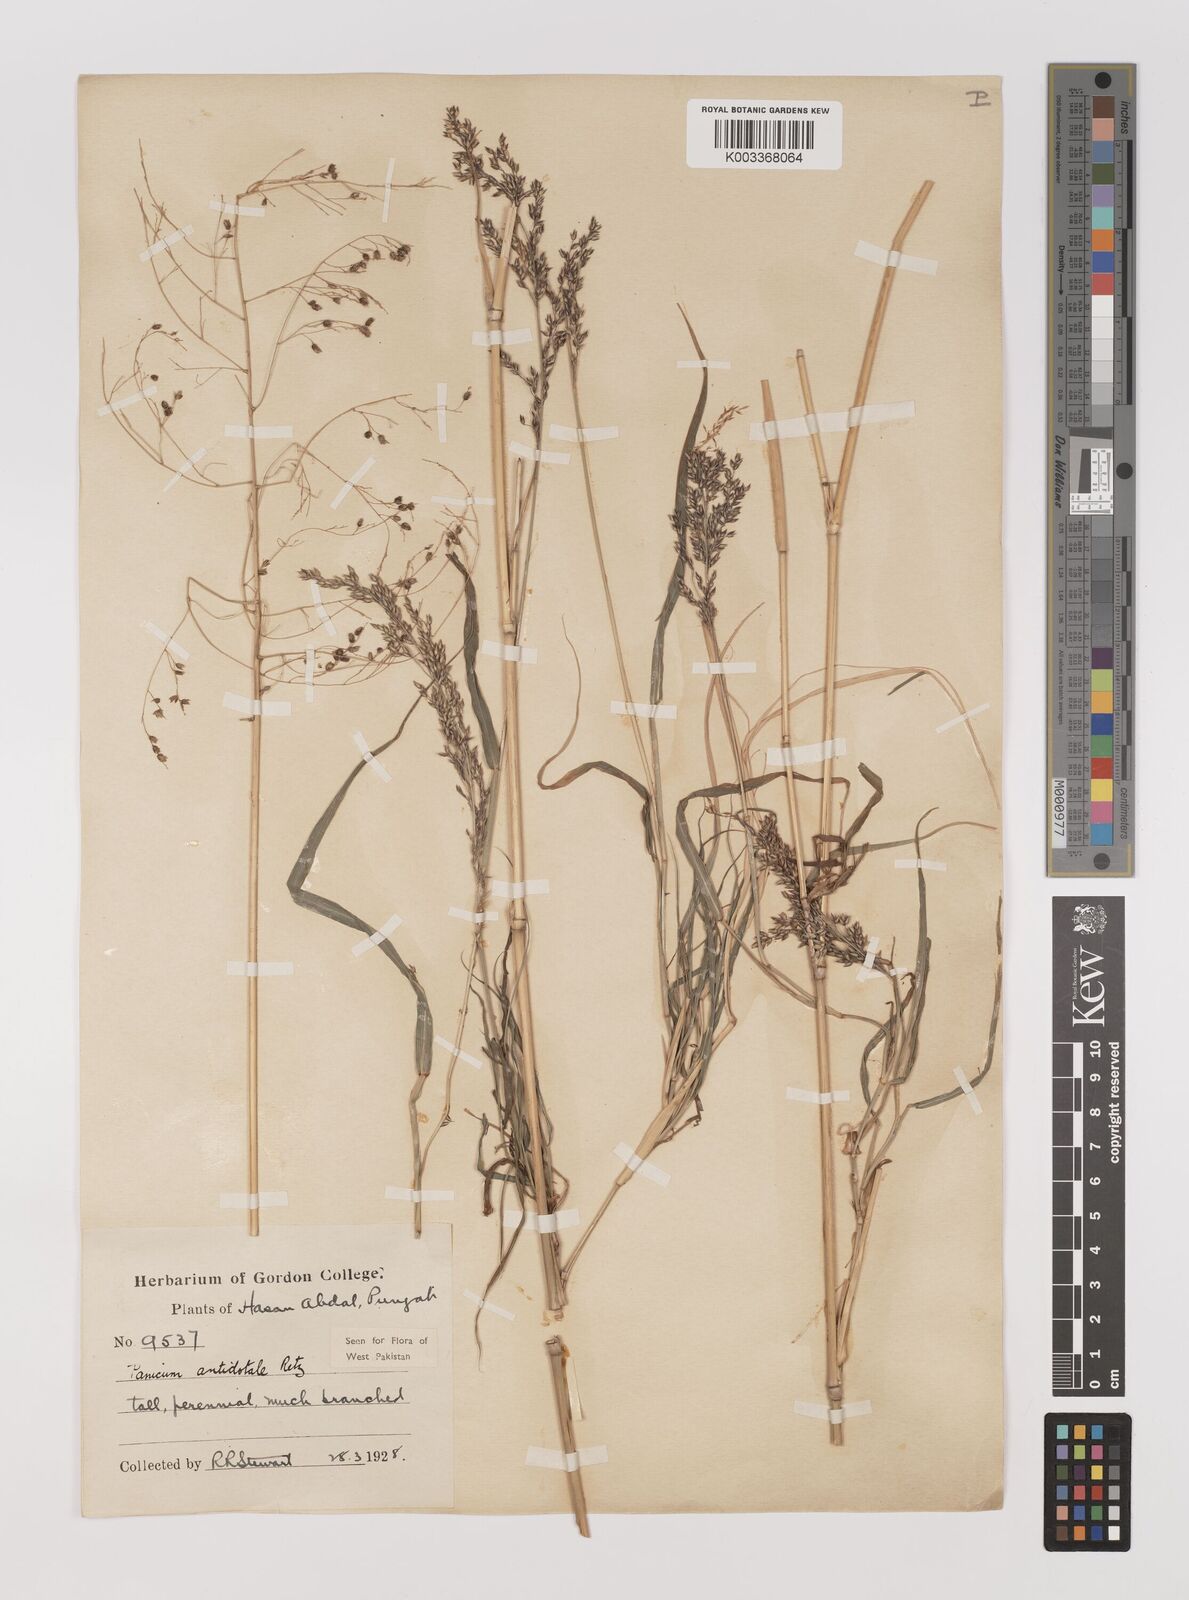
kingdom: Plantae
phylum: Tracheophyta
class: Liliopsida
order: Poales
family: Poaceae
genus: Panicum
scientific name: Panicum antidotale
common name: Blue panicum
